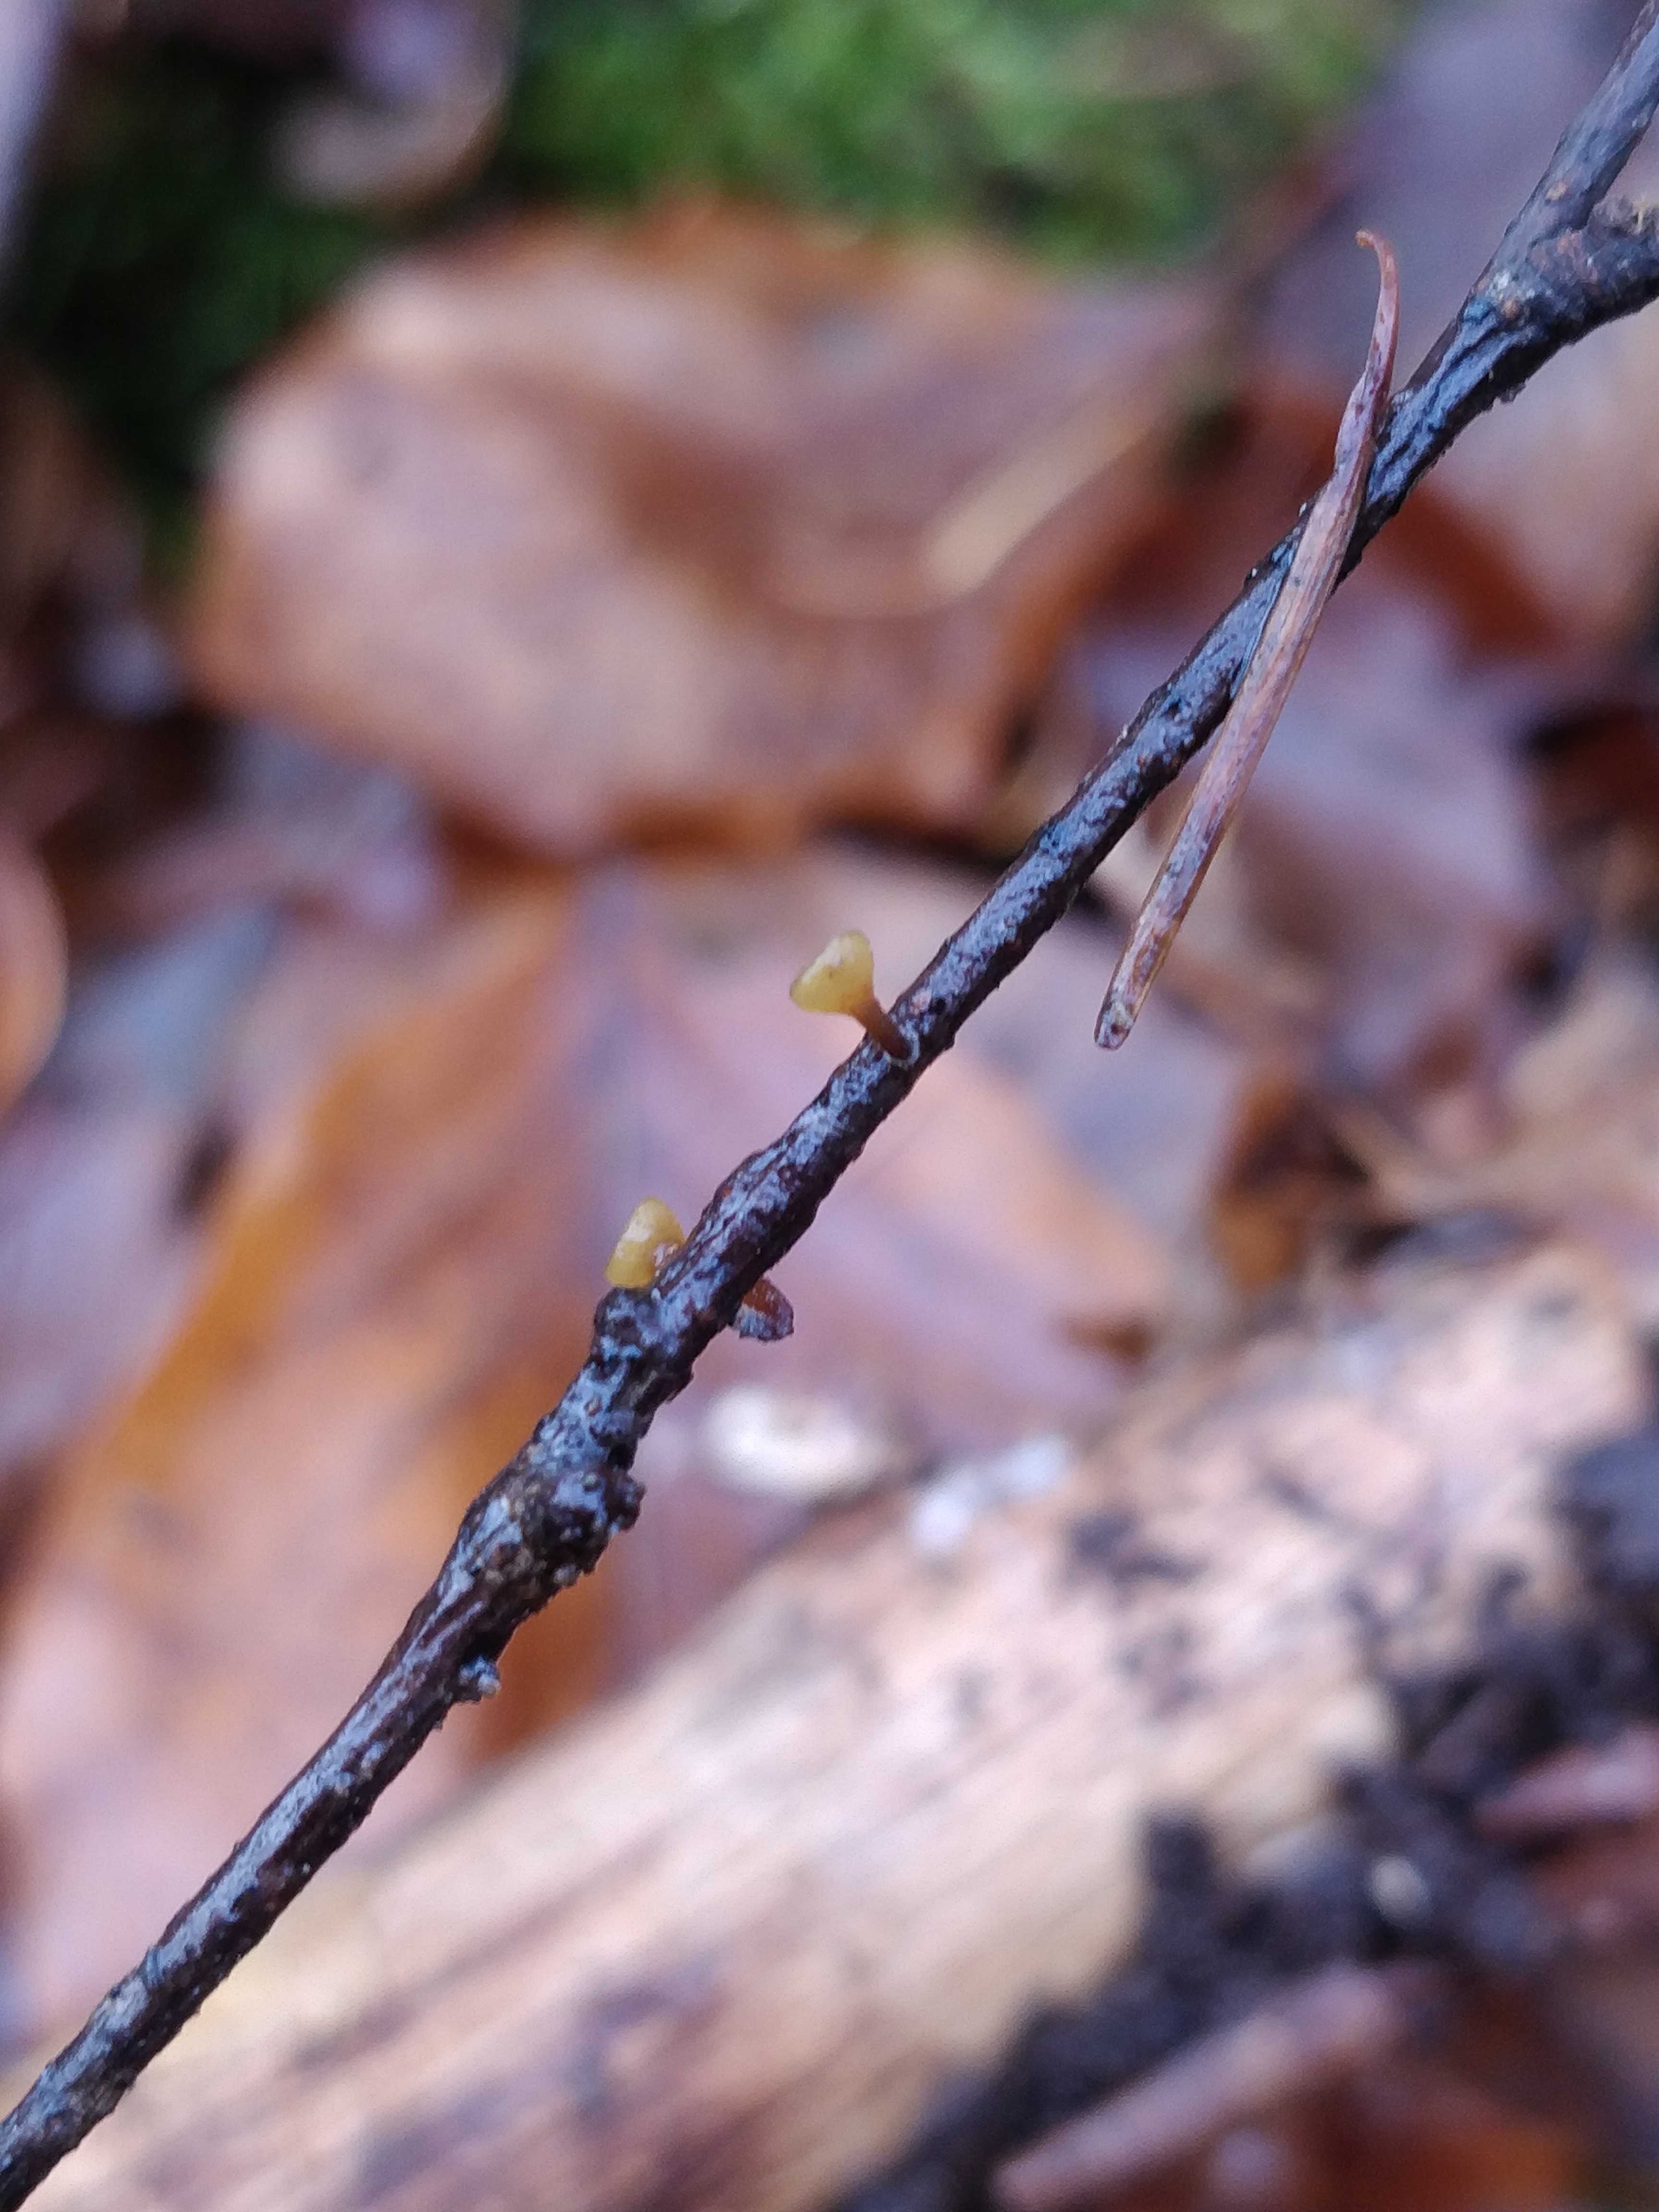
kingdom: Fungi
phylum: Ascomycota
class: Leotiomycetes
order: Helotiales
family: Rutstroemiaceae
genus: Rutstroemia
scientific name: Rutstroemia firma
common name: gren-brunskive
